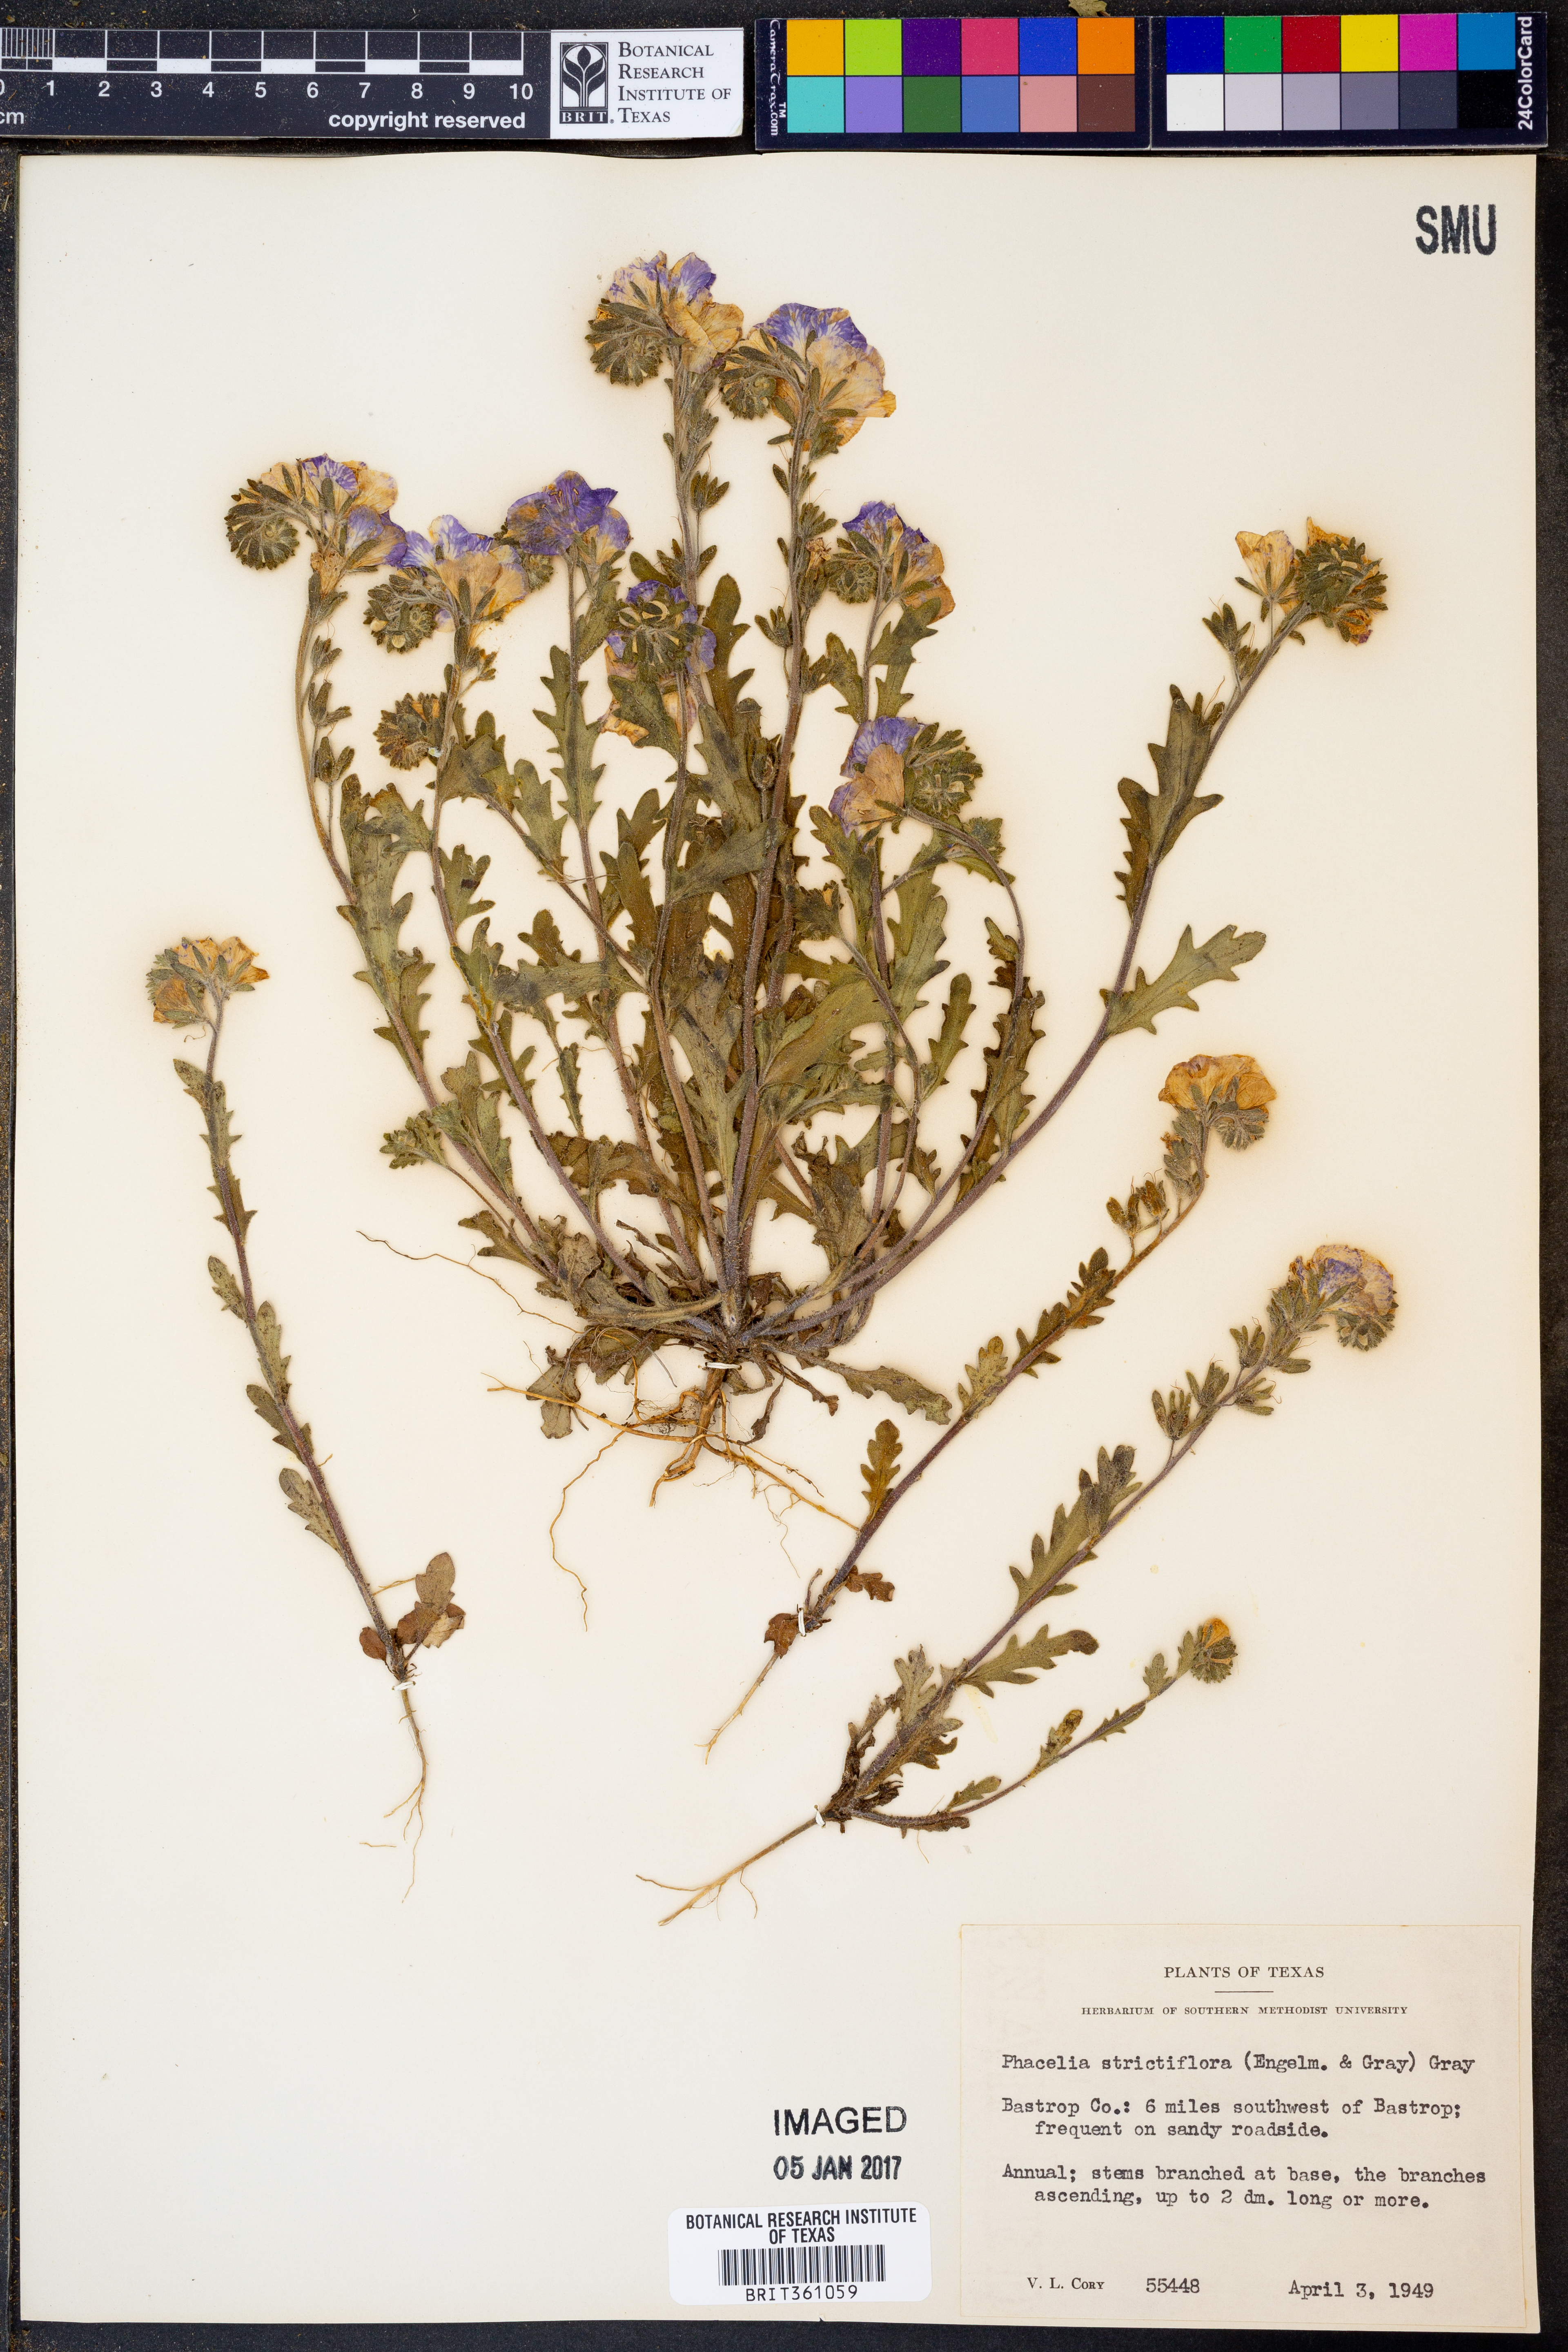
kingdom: Plantae
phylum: Tracheophyta
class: Magnoliopsida
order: Boraginales
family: Hydrophyllaceae
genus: Phacelia
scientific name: Phacelia strictiflora
